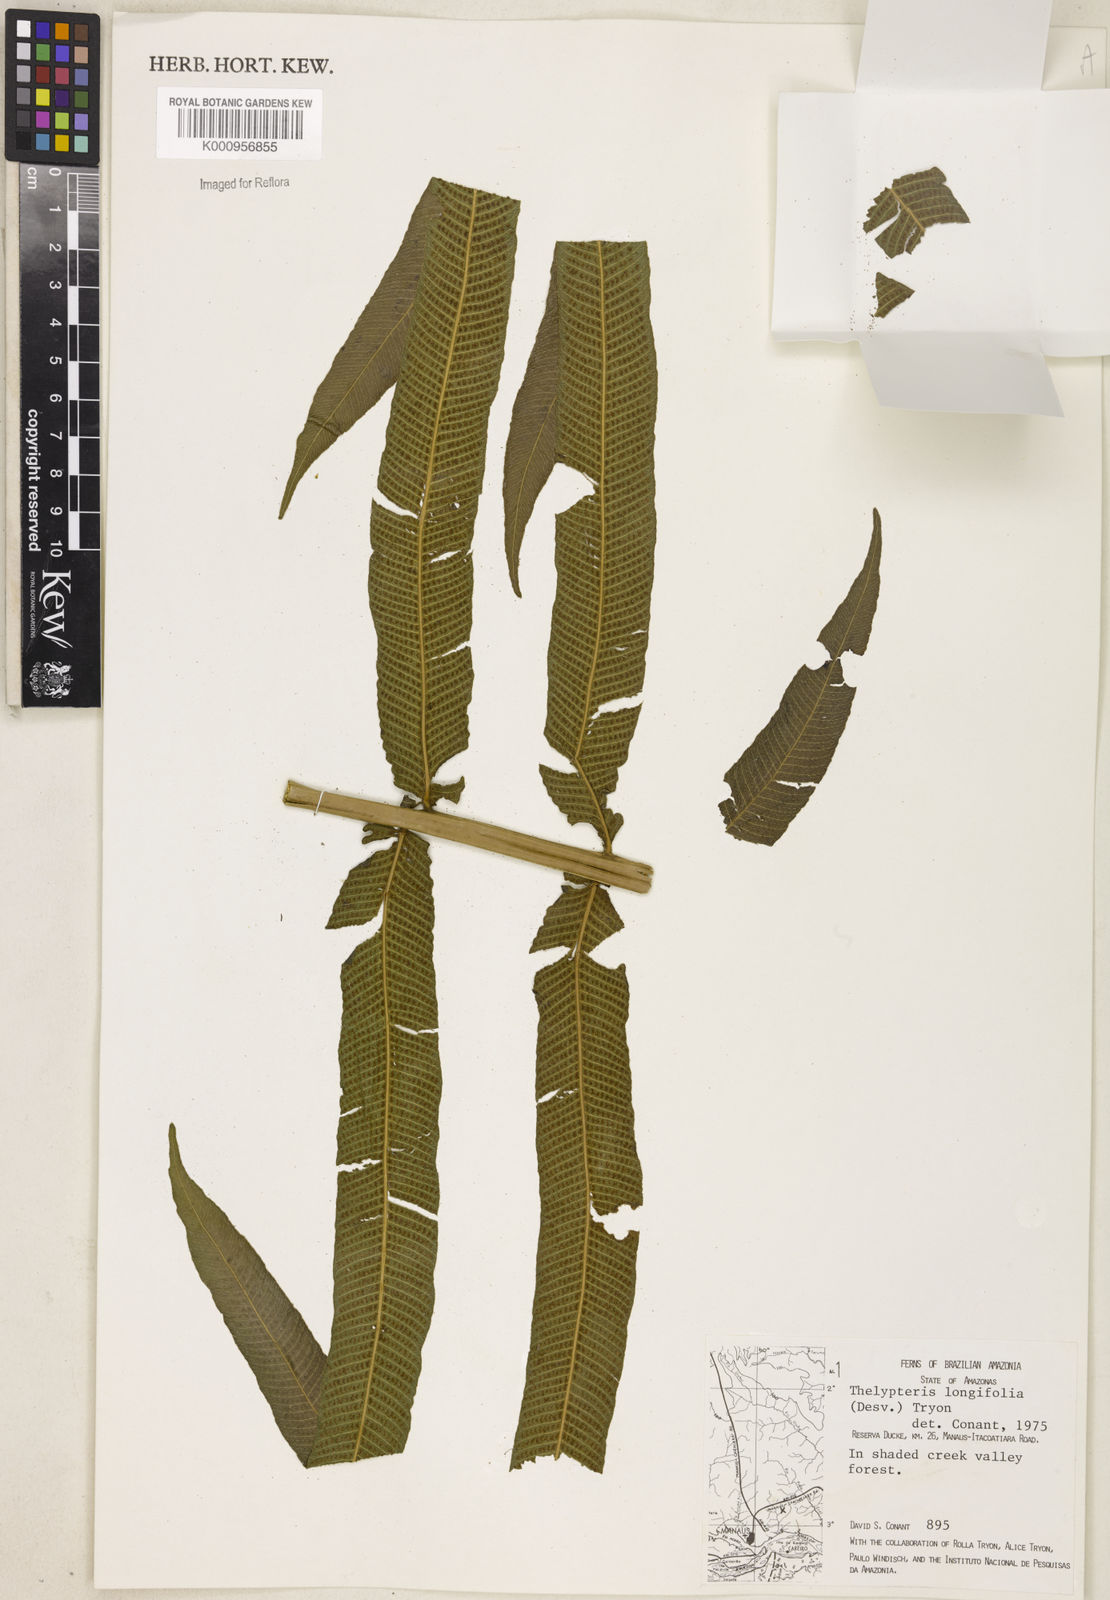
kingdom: Plantae
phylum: Tracheophyta
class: Polypodiopsida
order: Polypodiales
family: Thelypteridaceae
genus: Meniscium
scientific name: Meniscium arborescens
